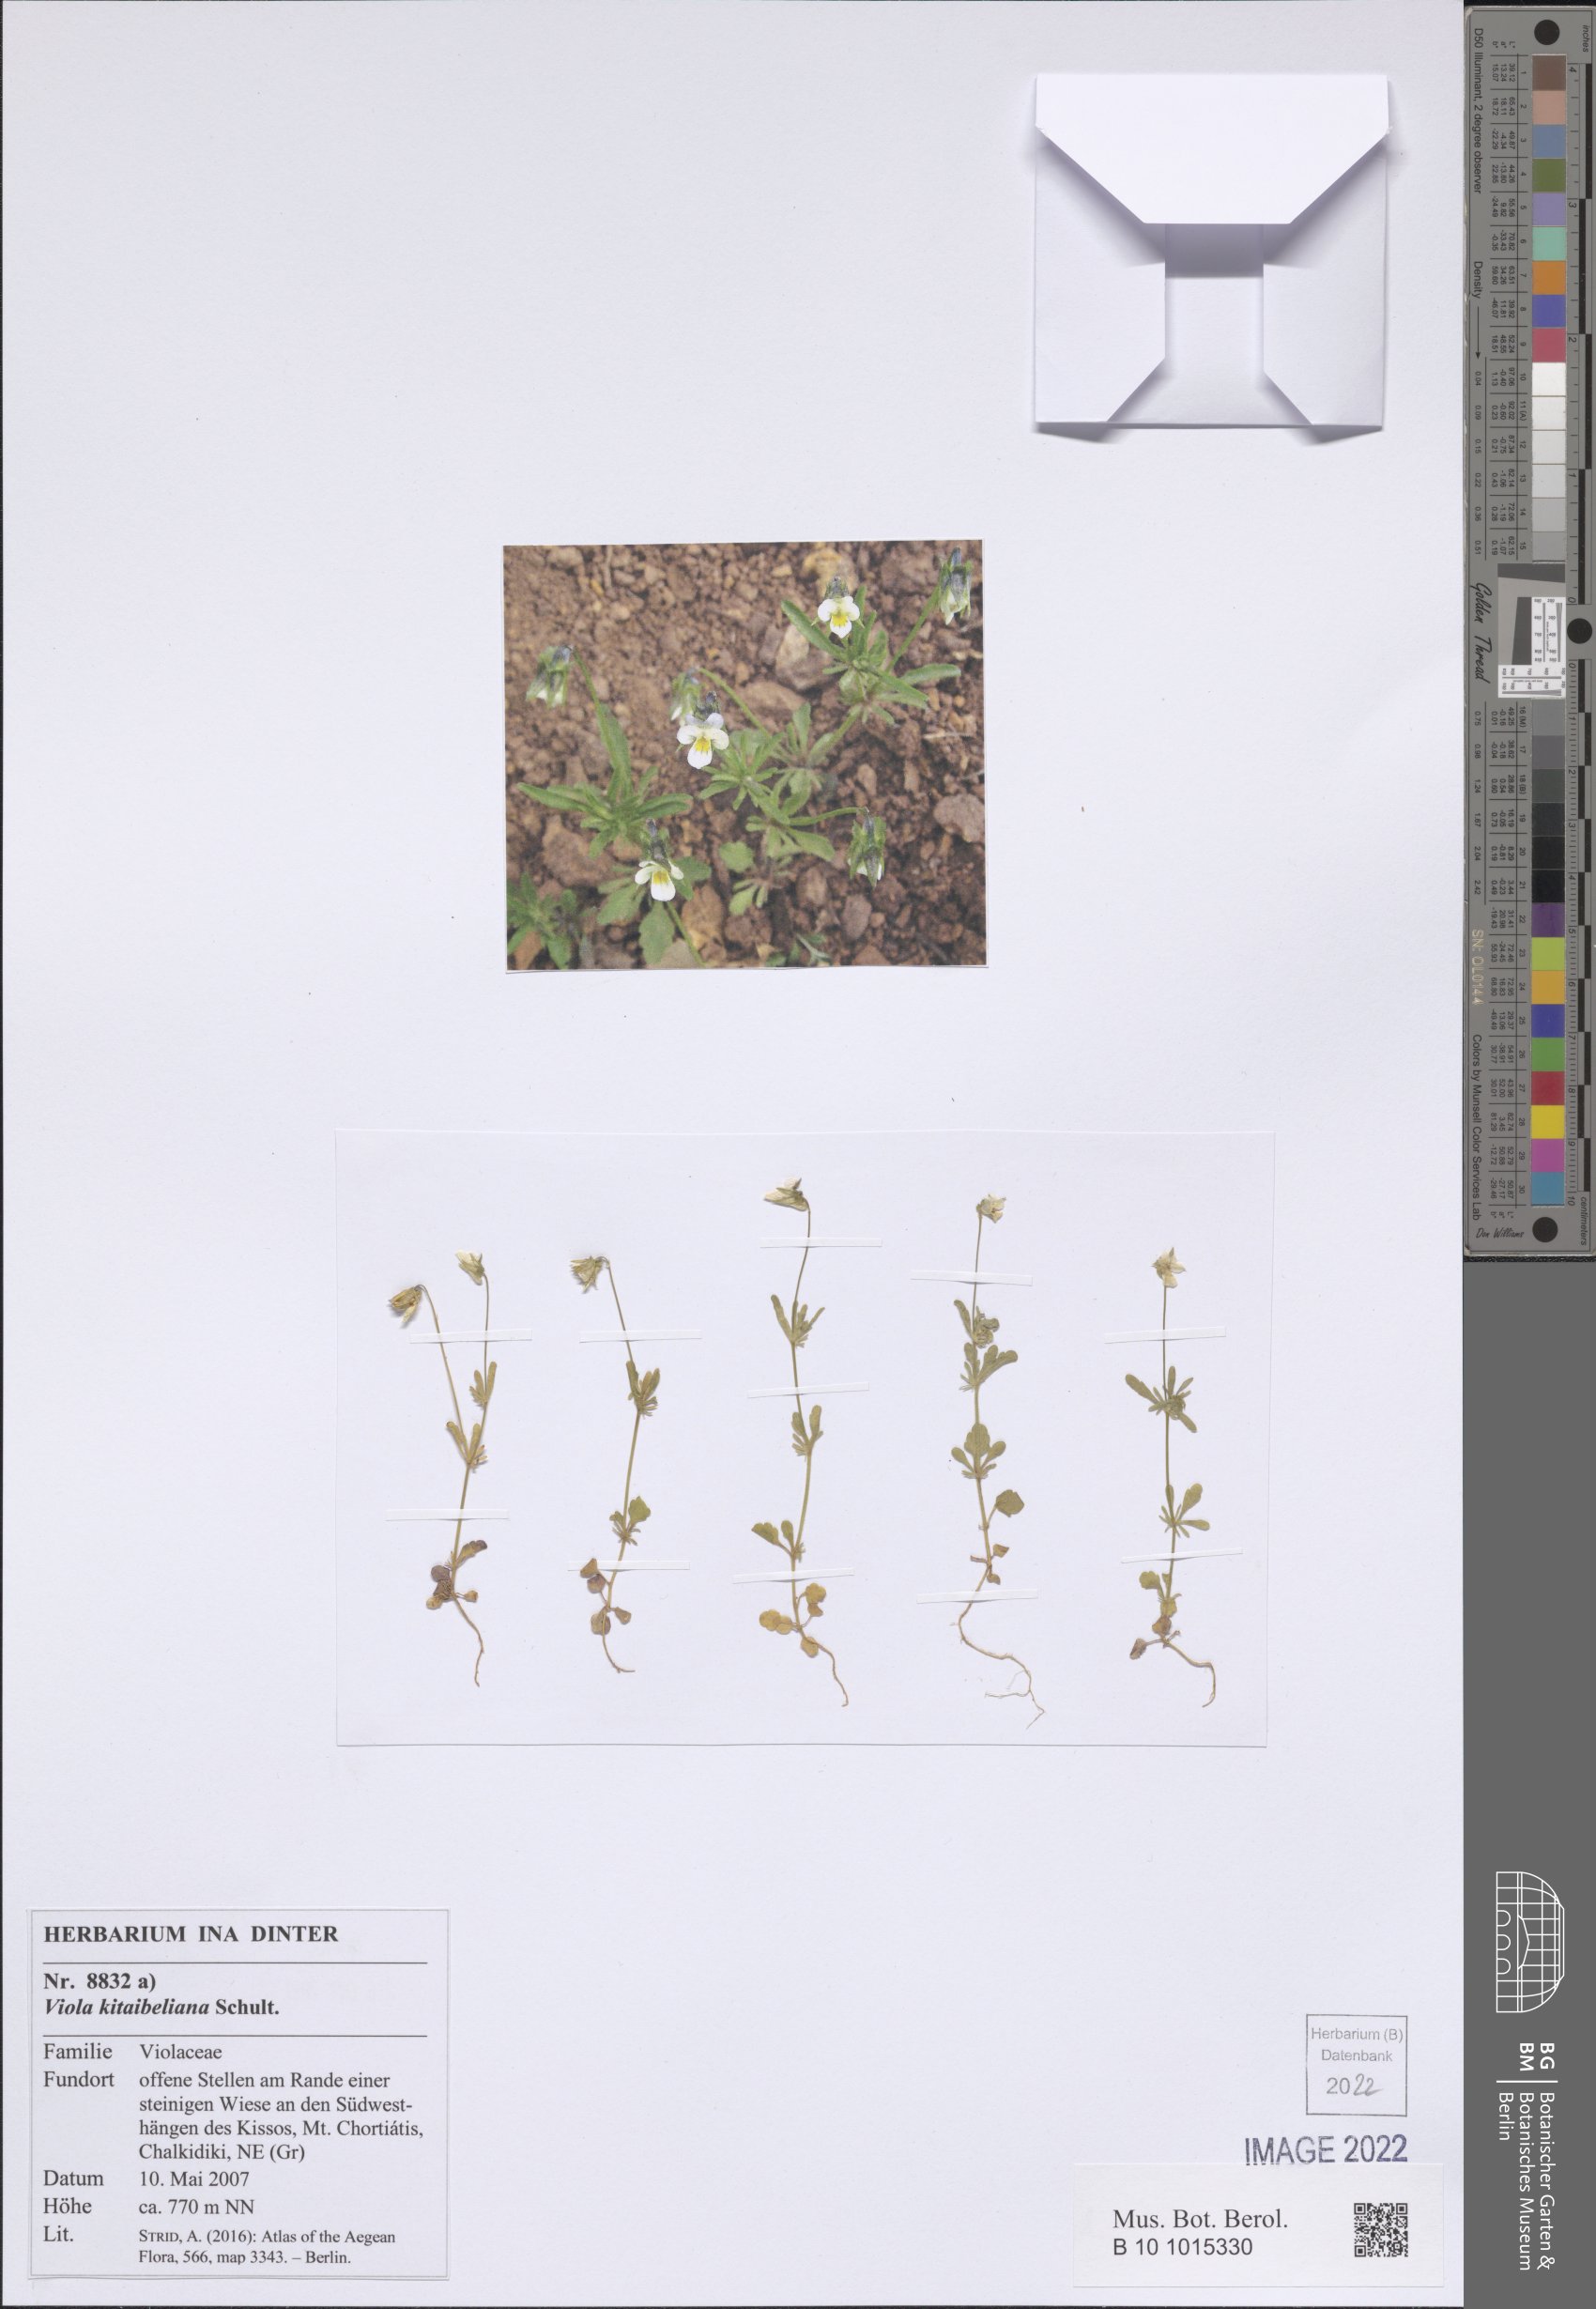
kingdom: Plantae
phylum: Tracheophyta
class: Magnoliopsida
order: Malpighiales
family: Violaceae
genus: Viola
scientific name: Viola kitaibeliana
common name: Dwarf pansy
